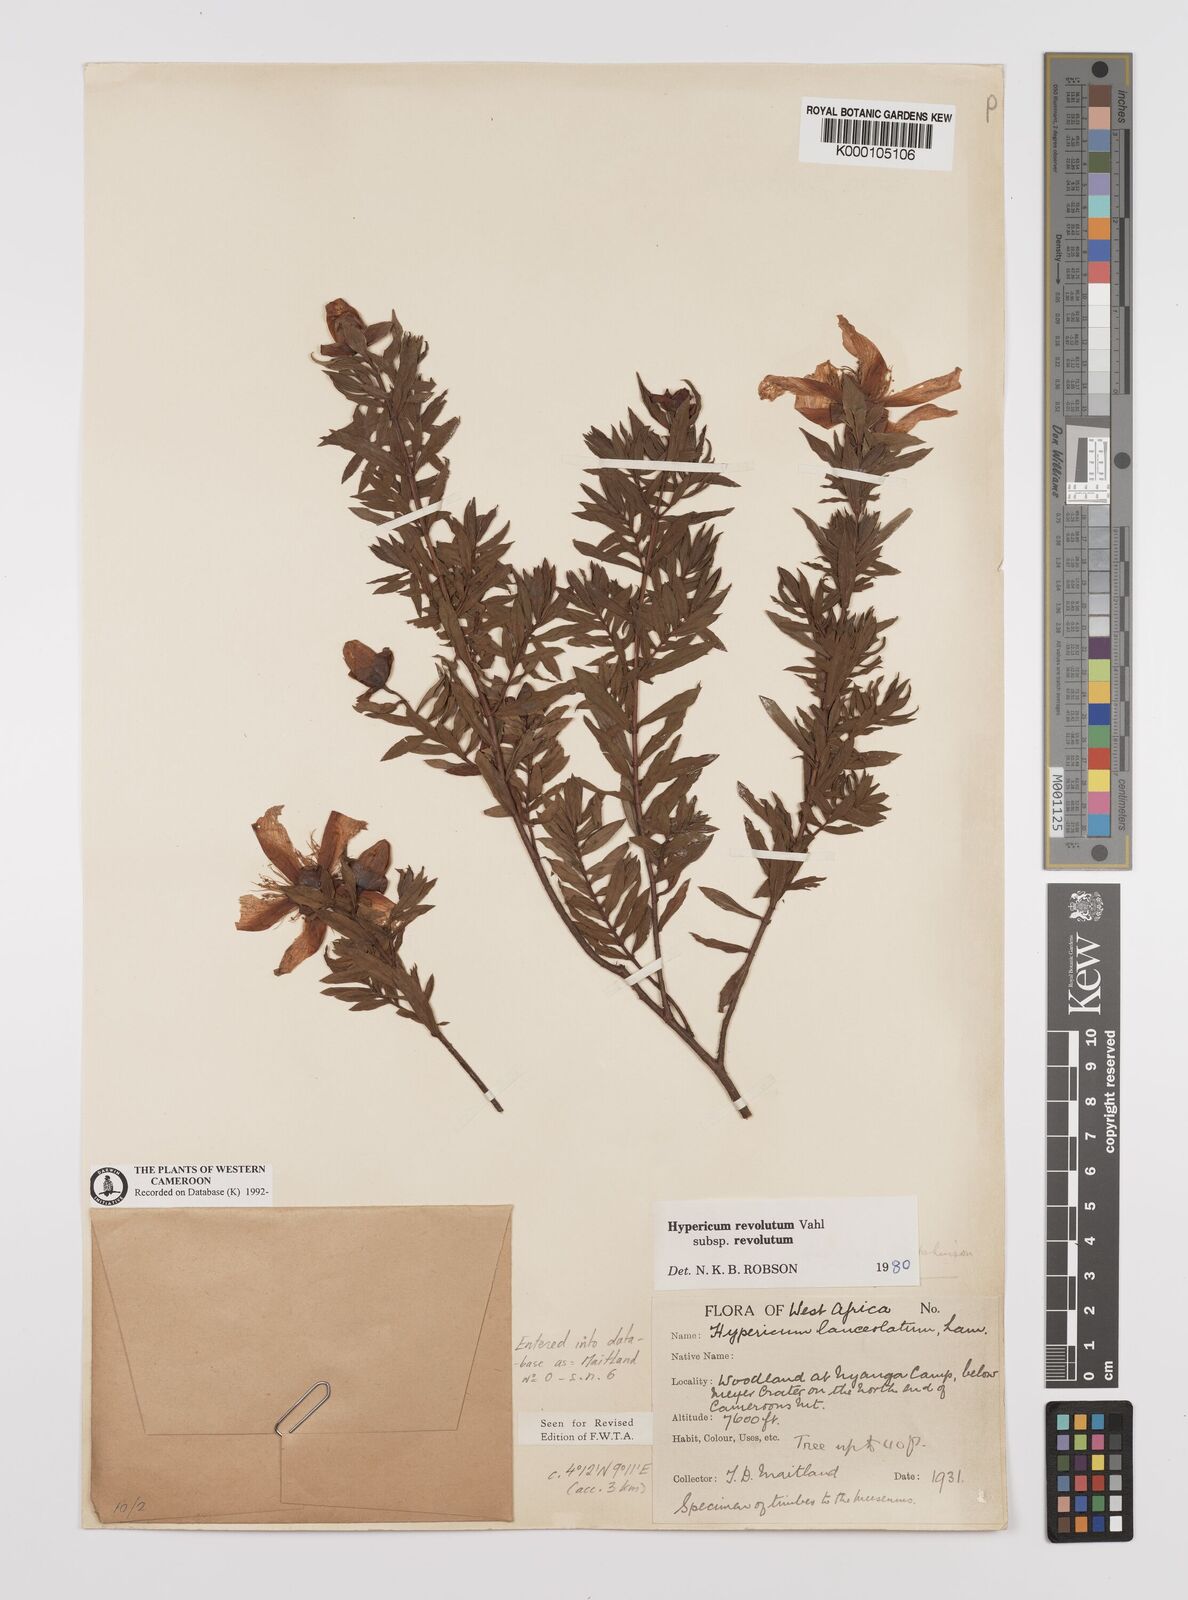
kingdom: Plantae
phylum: Tracheophyta
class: Magnoliopsida
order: Malpighiales
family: Hypericaceae
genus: Hypericum
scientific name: Hypericum revolutum
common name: Curry bush
